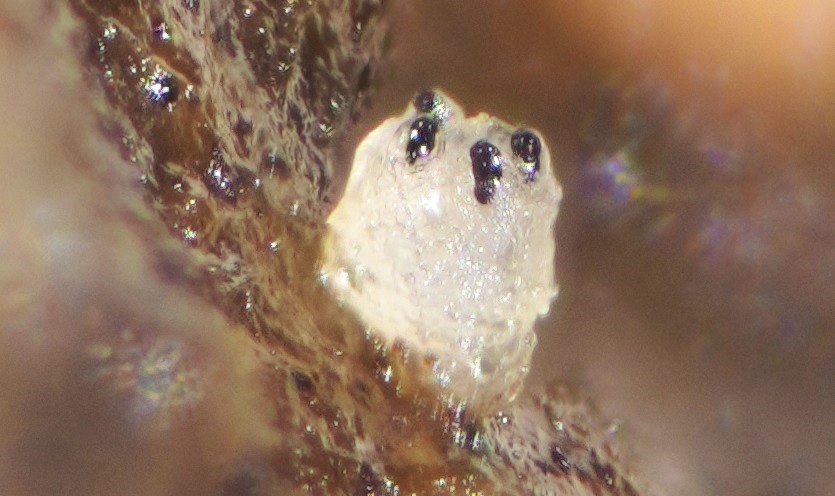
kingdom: Fungi
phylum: Ascomycota
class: Pezizomycetes
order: Pezizales
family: Ascobolaceae
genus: Saccobolus
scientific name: Saccobolus beckii
